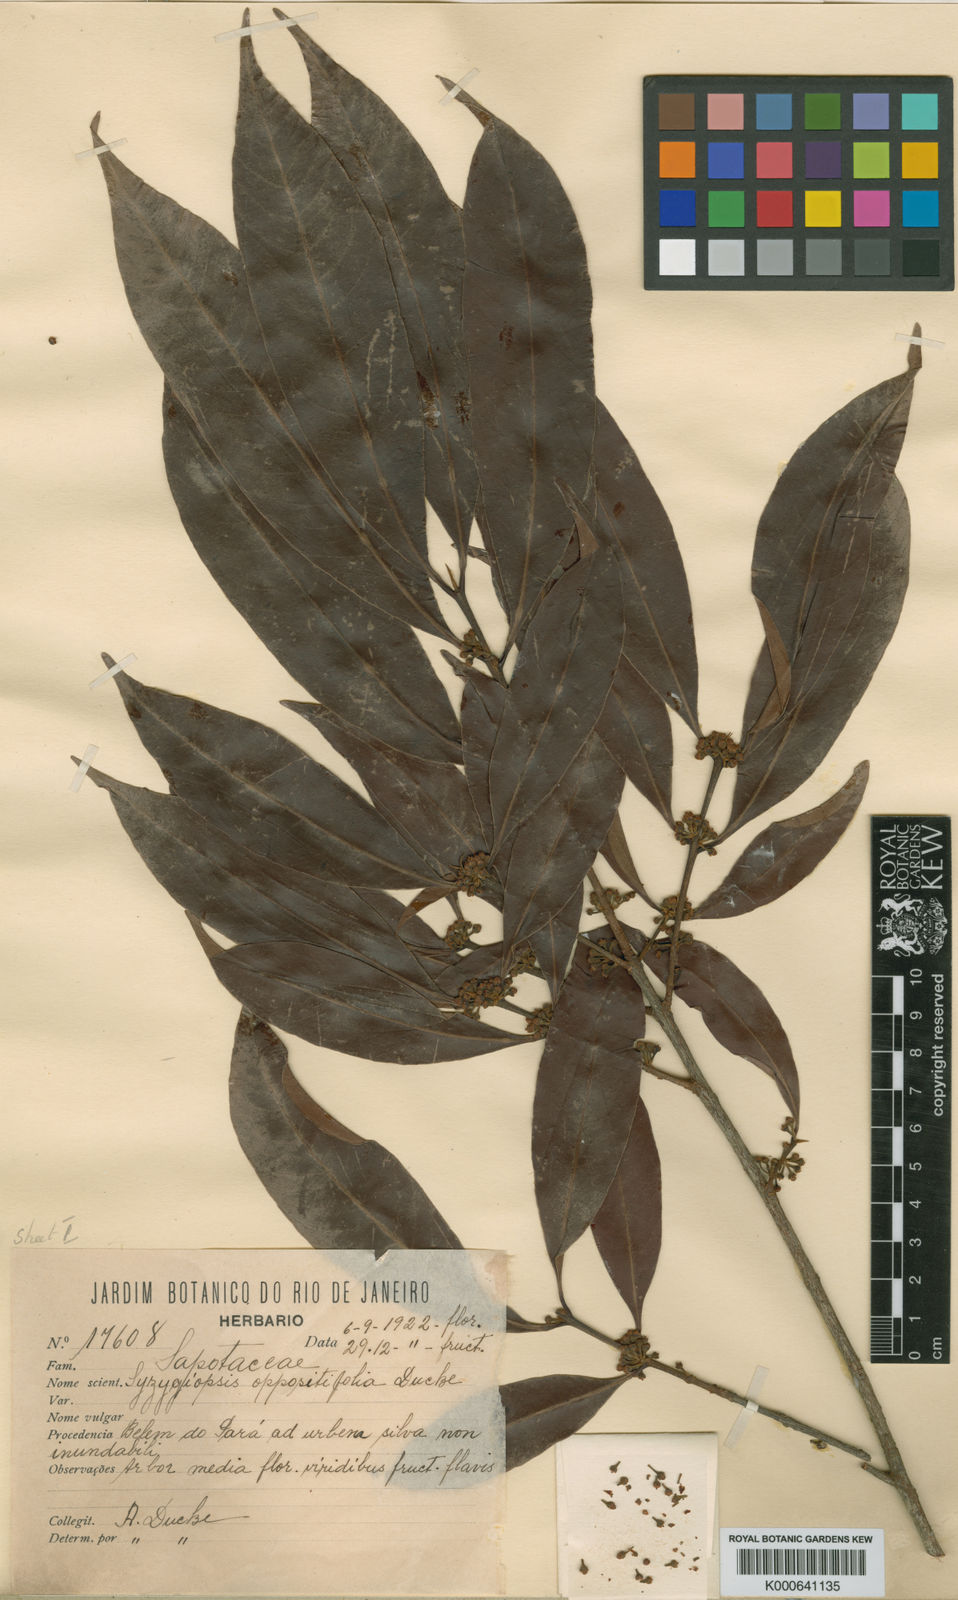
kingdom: Plantae
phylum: Tracheophyta
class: Magnoliopsida
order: Ericales
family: Sapotaceae
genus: Pouteria
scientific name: Pouteria oppositifolia
